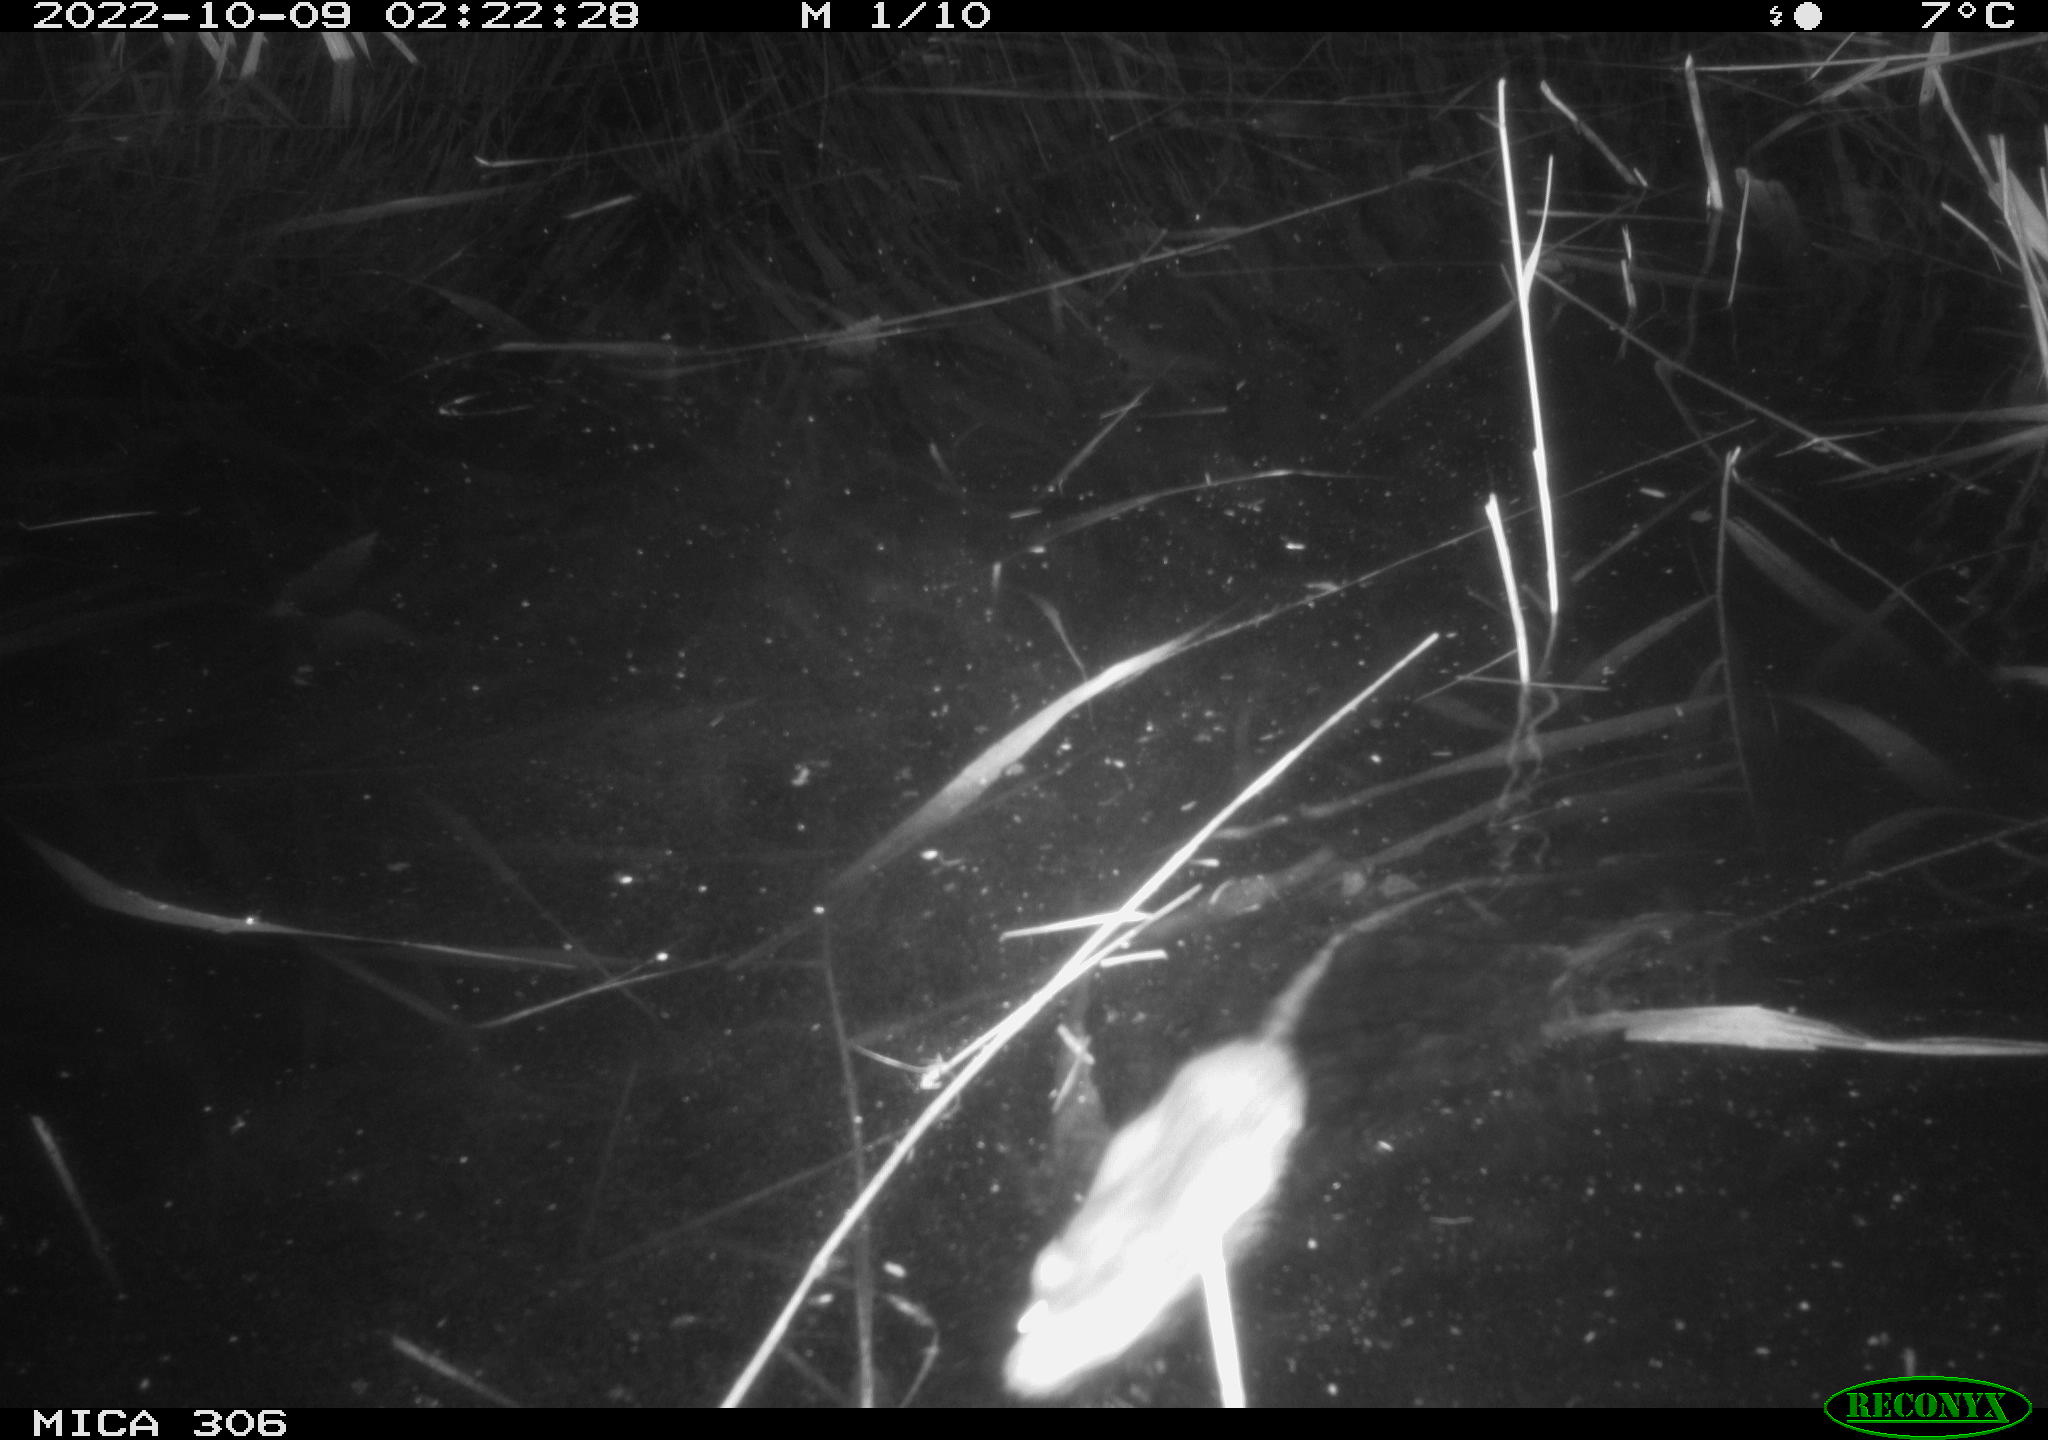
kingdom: Animalia
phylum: Chordata
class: Mammalia
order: Rodentia
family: Muridae
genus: Rattus
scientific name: Rattus norvegicus
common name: Brown rat
